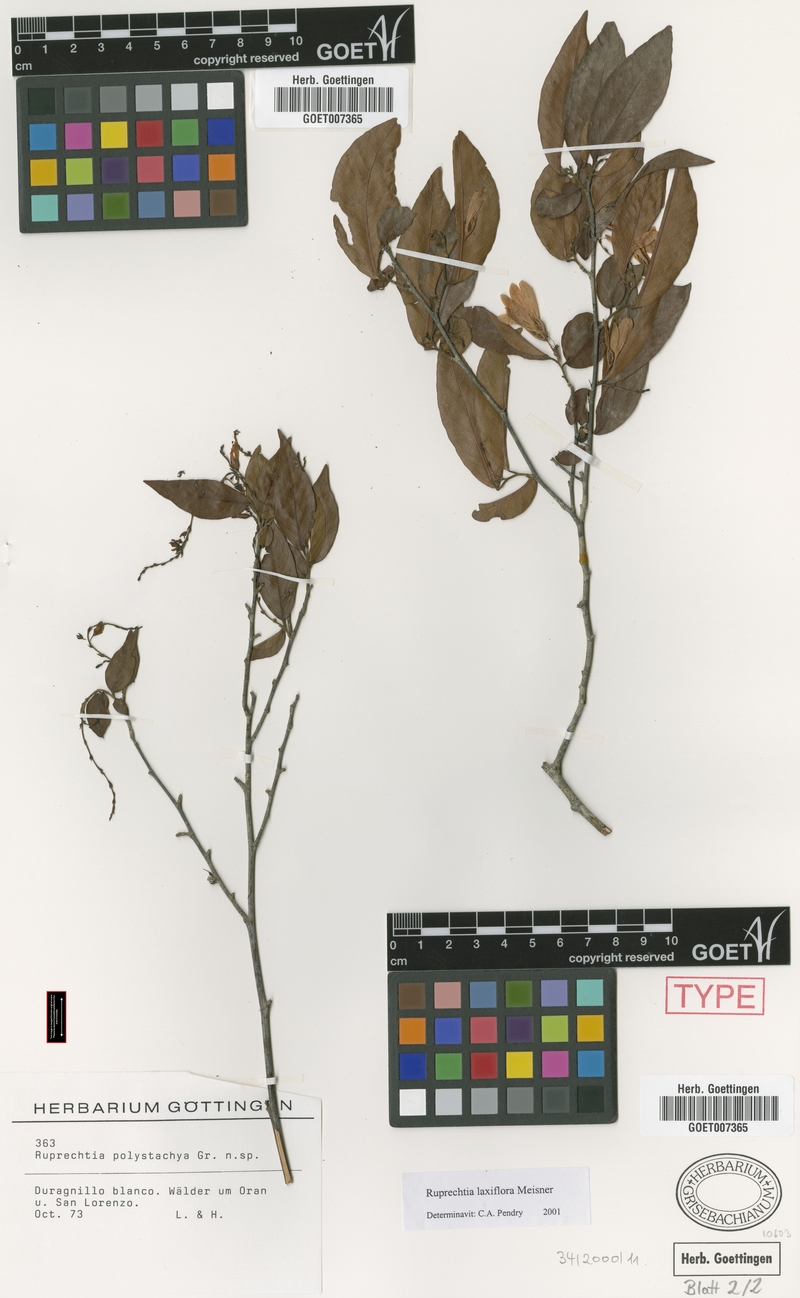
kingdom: Plantae
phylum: Tracheophyta
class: Magnoliopsida
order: Caryophyllales
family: Polygonaceae
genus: Ruprechtia
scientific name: Ruprechtia laxiflora
